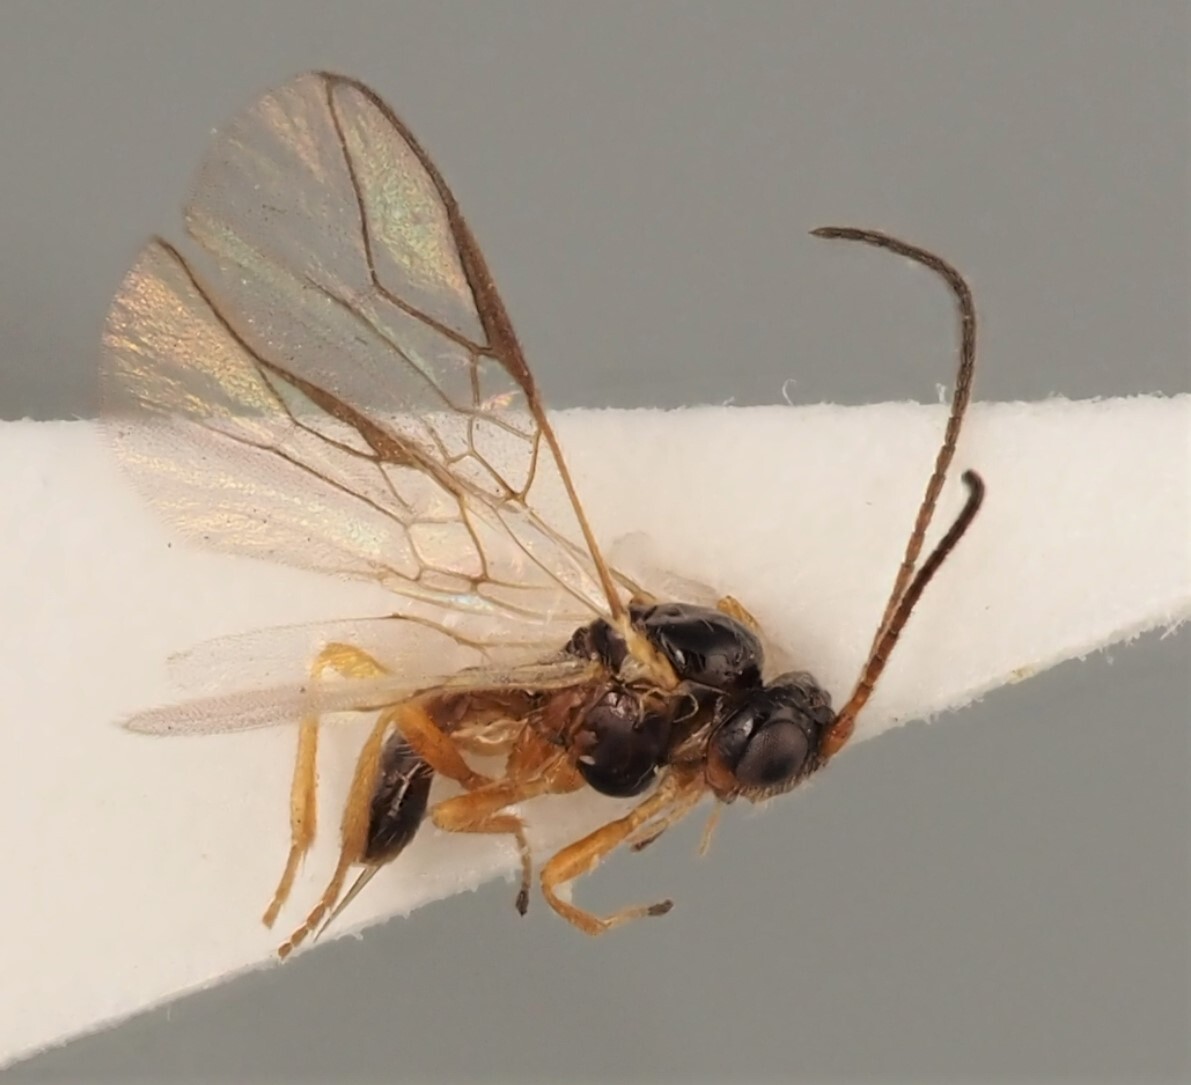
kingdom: Animalia
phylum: Arthropoda
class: Insecta
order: Hymenoptera
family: Braconidae
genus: Opius
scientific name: Opius caprifolii
